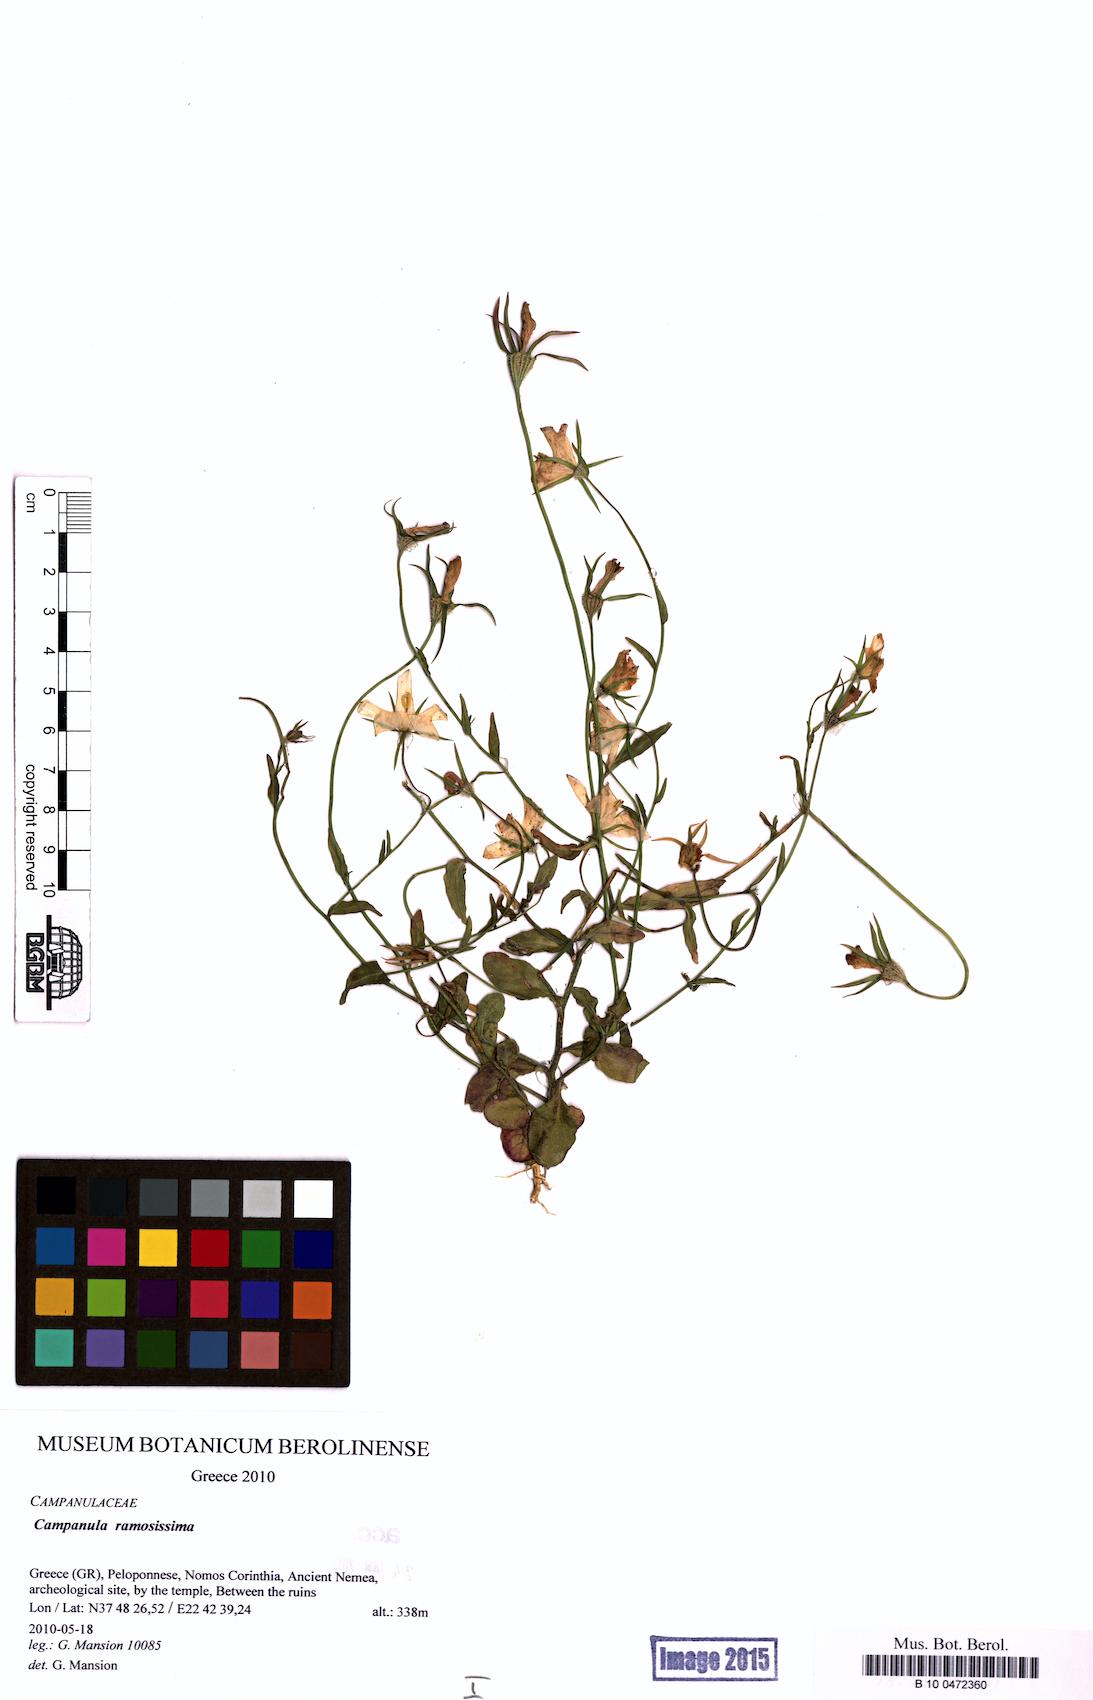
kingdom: Plantae
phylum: Tracheophyta
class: Magnoliopsida
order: Asterales
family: Campanulaceae
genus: Campanula
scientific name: Campanula ramosissima
